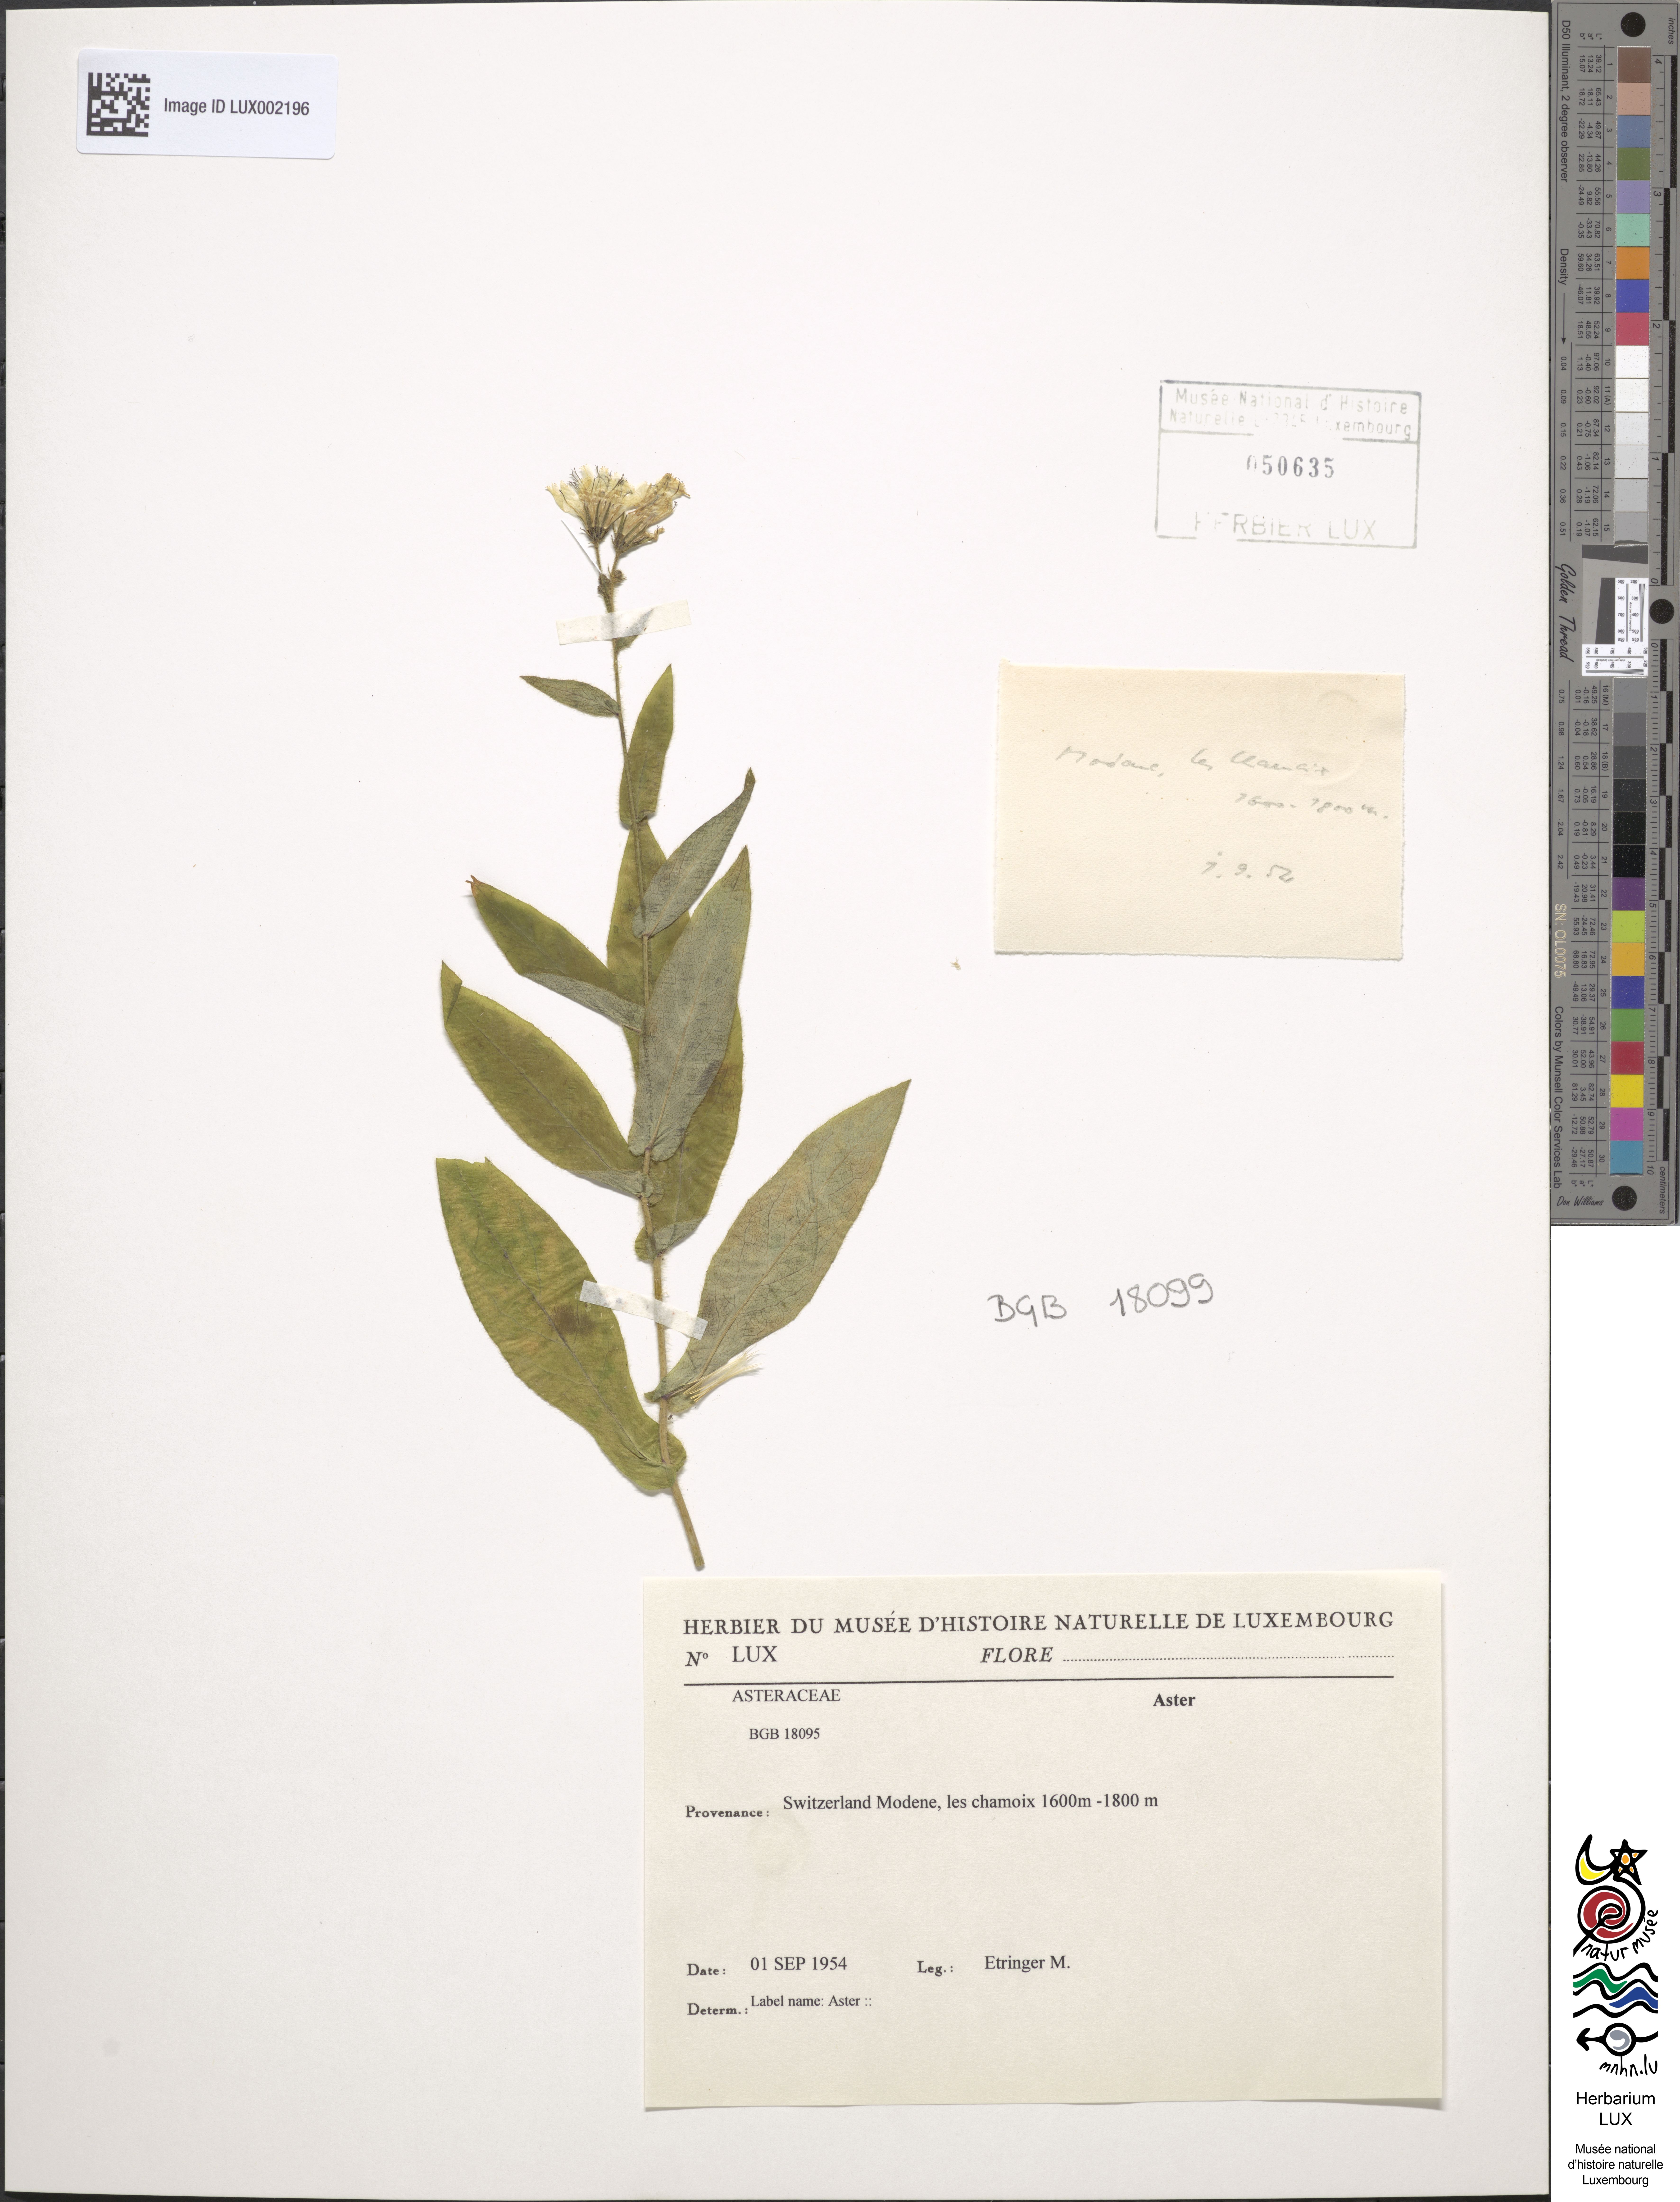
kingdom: Plantae
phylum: Tracheophyta
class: Magnoliopsida
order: Asterales
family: Asteraceae
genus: Aster
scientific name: Aster
